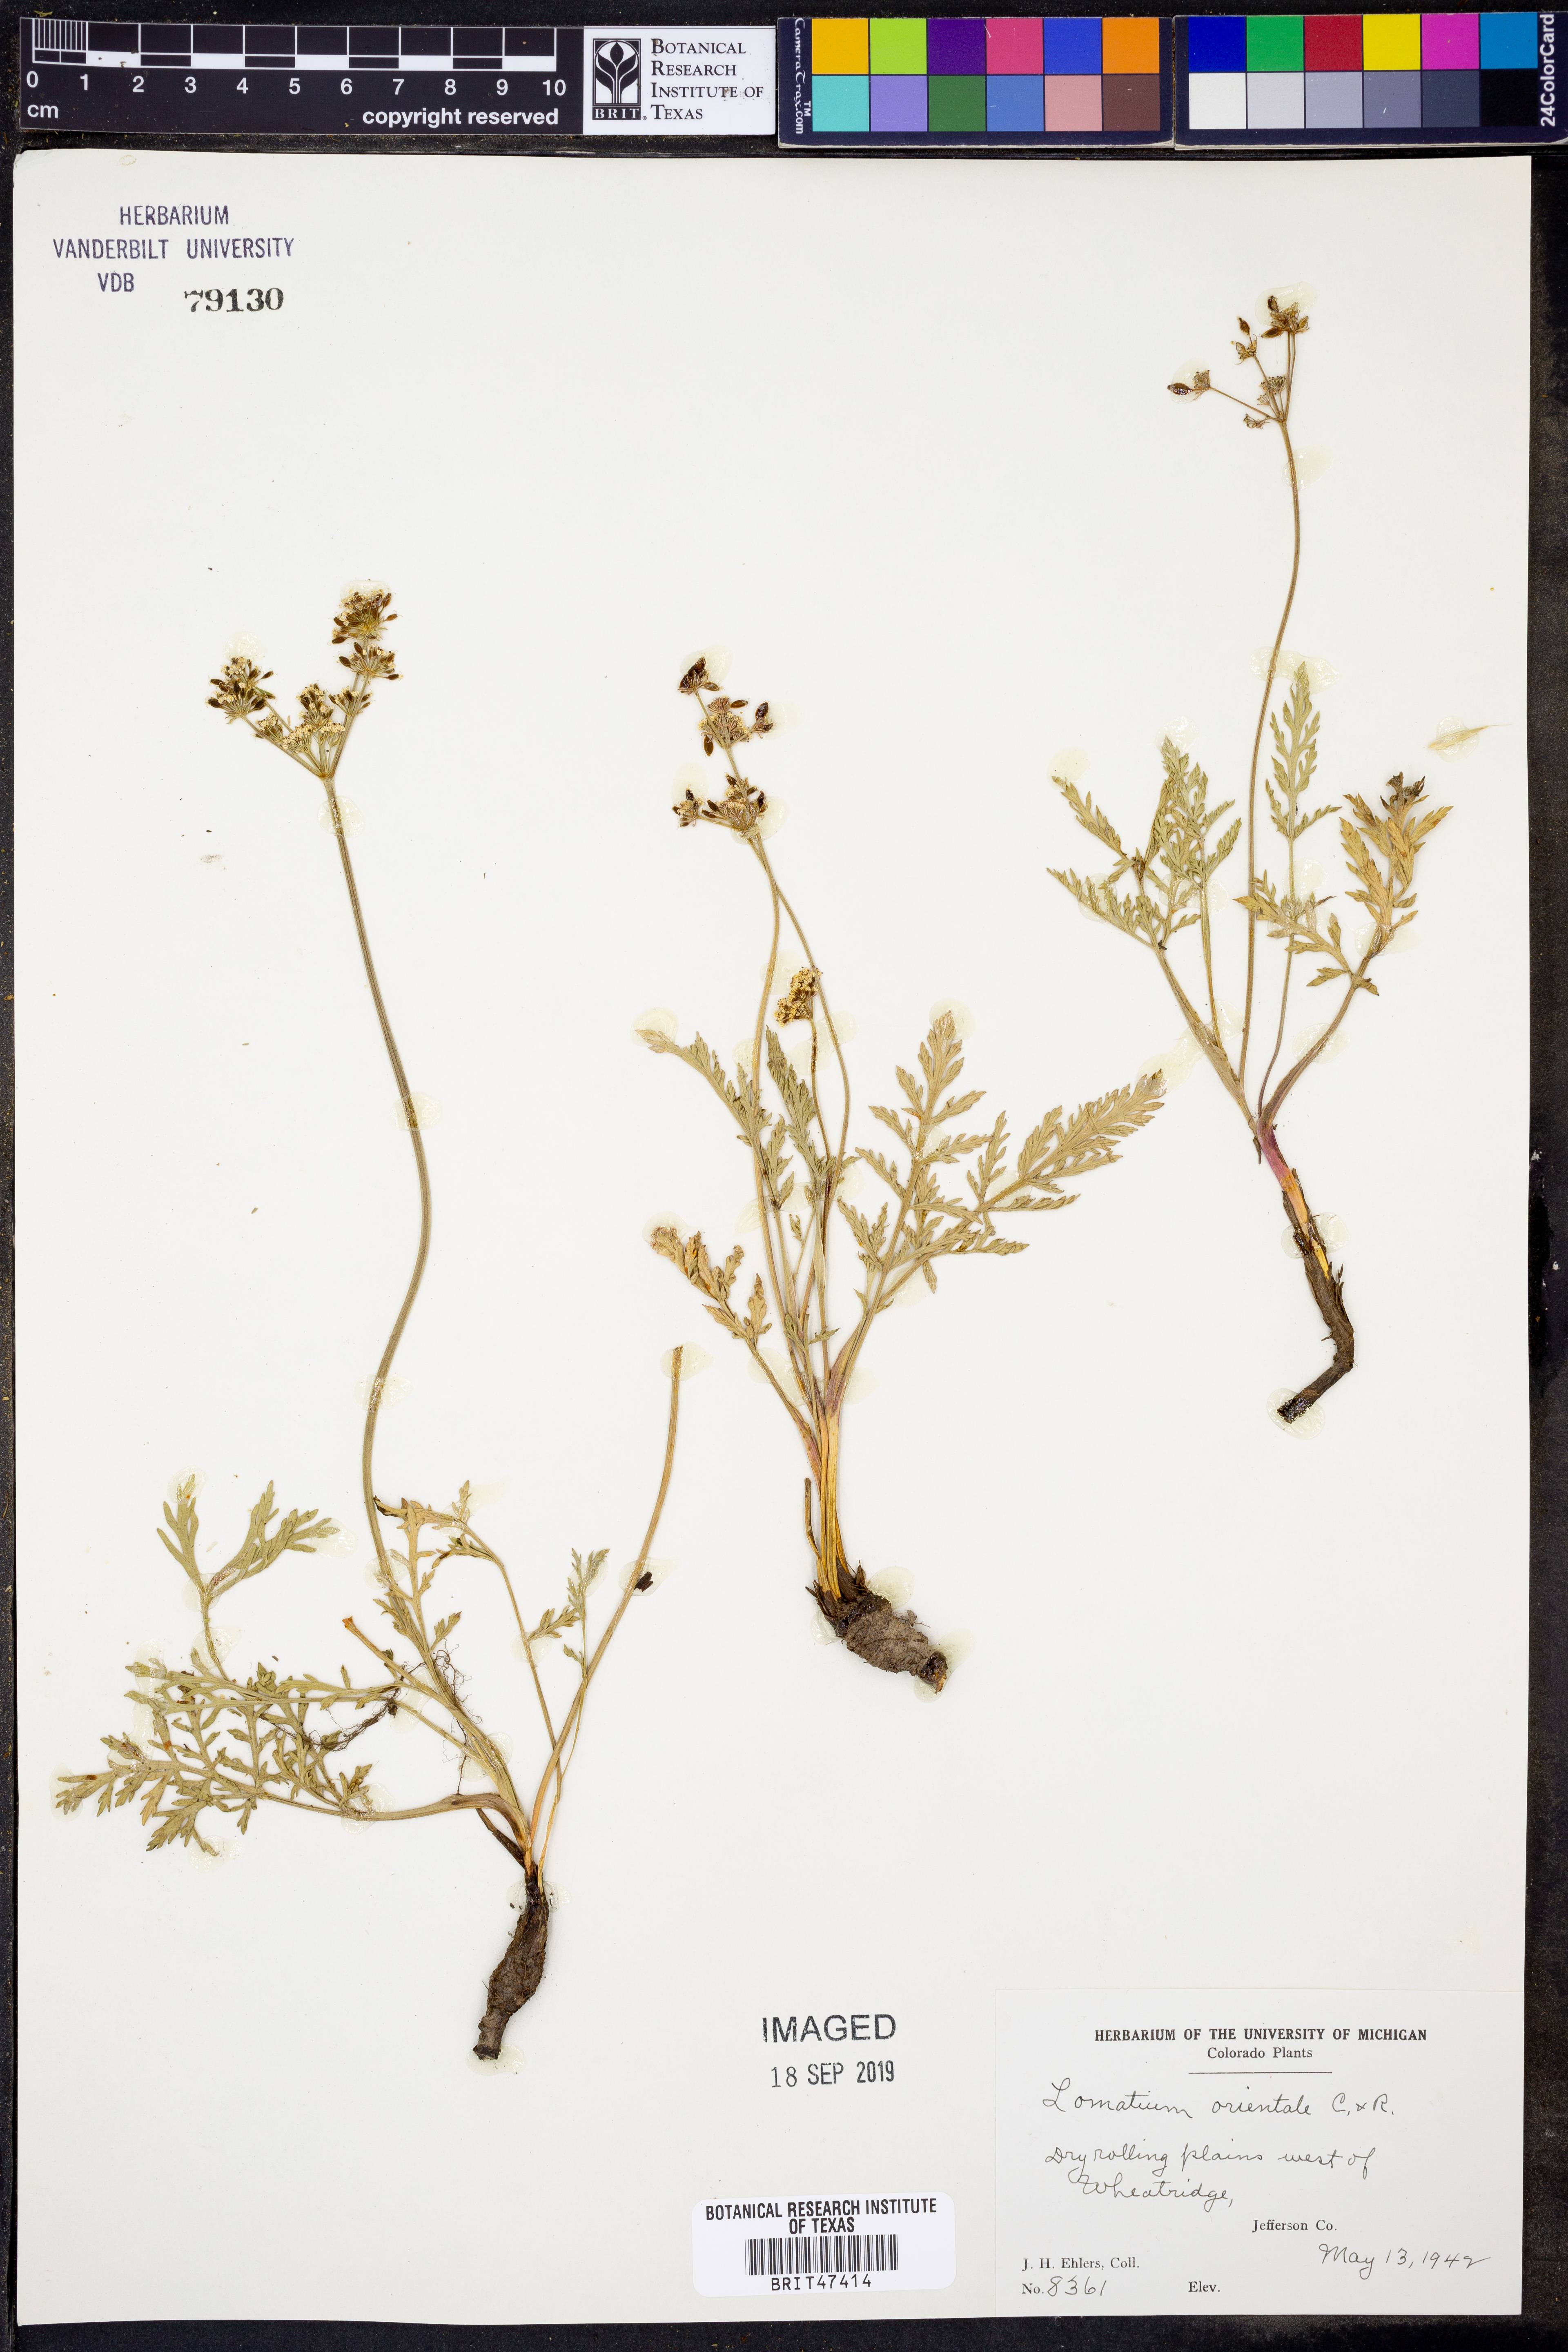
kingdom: Plantae
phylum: Tracheophyta
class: Magnoliopsida
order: Apiales
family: Apiaceae
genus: Lomatium
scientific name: Lomatium orientale
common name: Eastern cous
